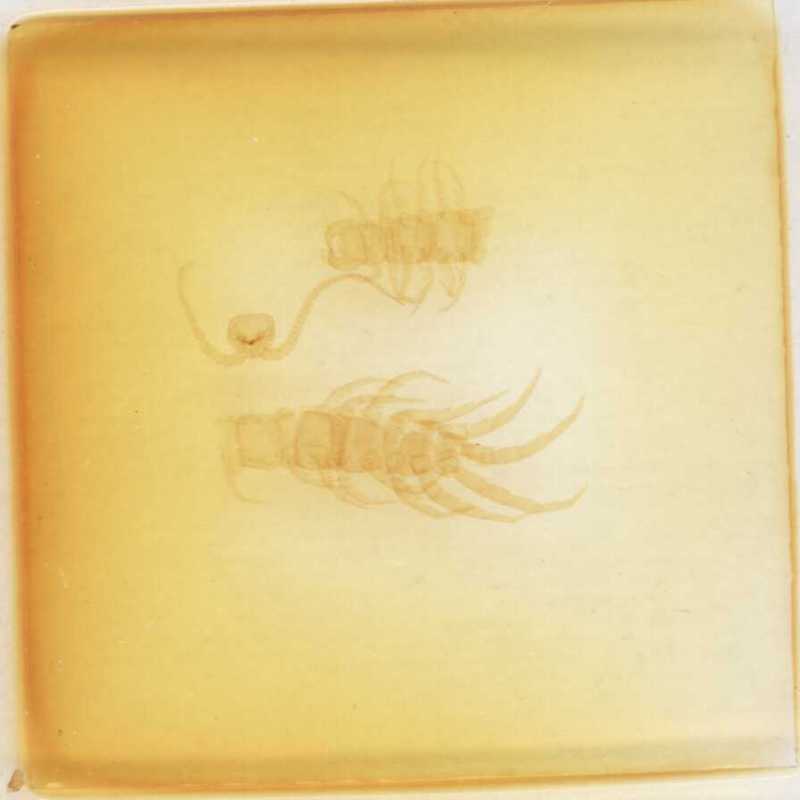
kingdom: Animalia
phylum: Arthropoda
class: Chilopoda
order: Lithobiomorpha
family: Lithobiidae
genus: Lithobius
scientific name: Lithobius subtilis
